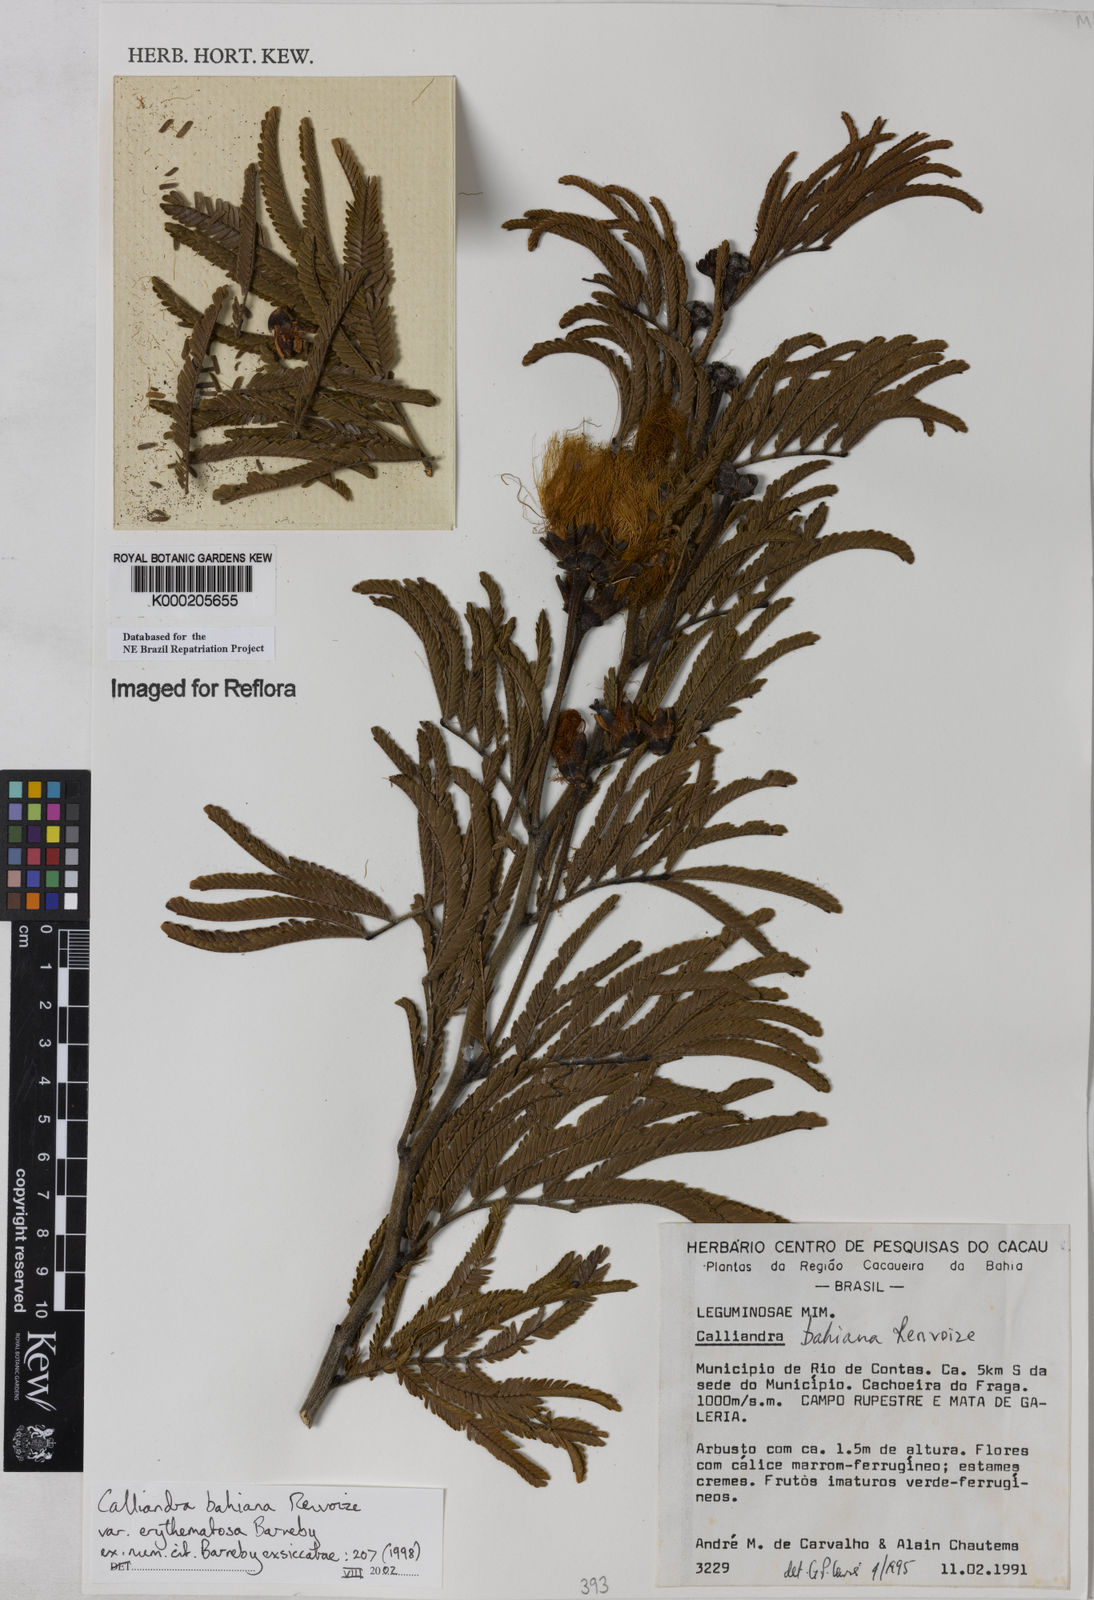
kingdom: Plantae
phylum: Tracheophyta
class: Magnoliopsida
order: Fabales
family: Fabaceae
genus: Calliandra
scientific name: Calliandra bahiana
